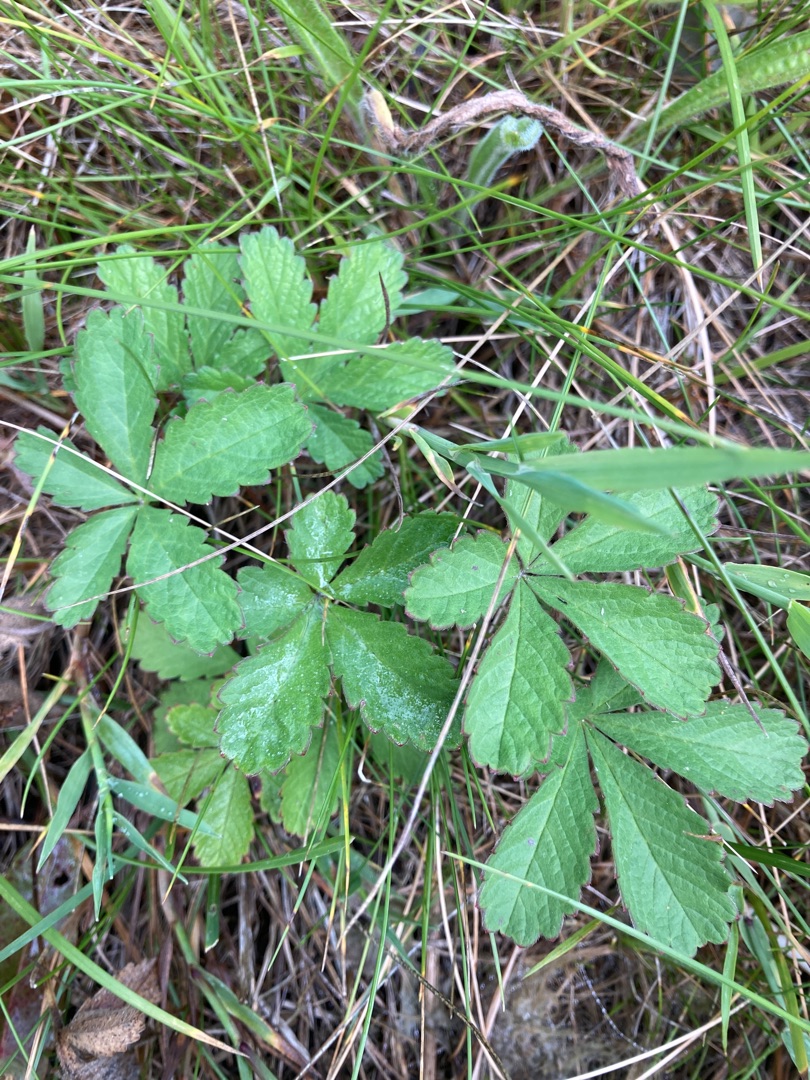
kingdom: Plantae
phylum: Tracheophyta
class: Magnoliopsida
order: Rosales
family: Rosaceae
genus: Potentilla
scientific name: Potentilla reptans
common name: Krybende potentil
